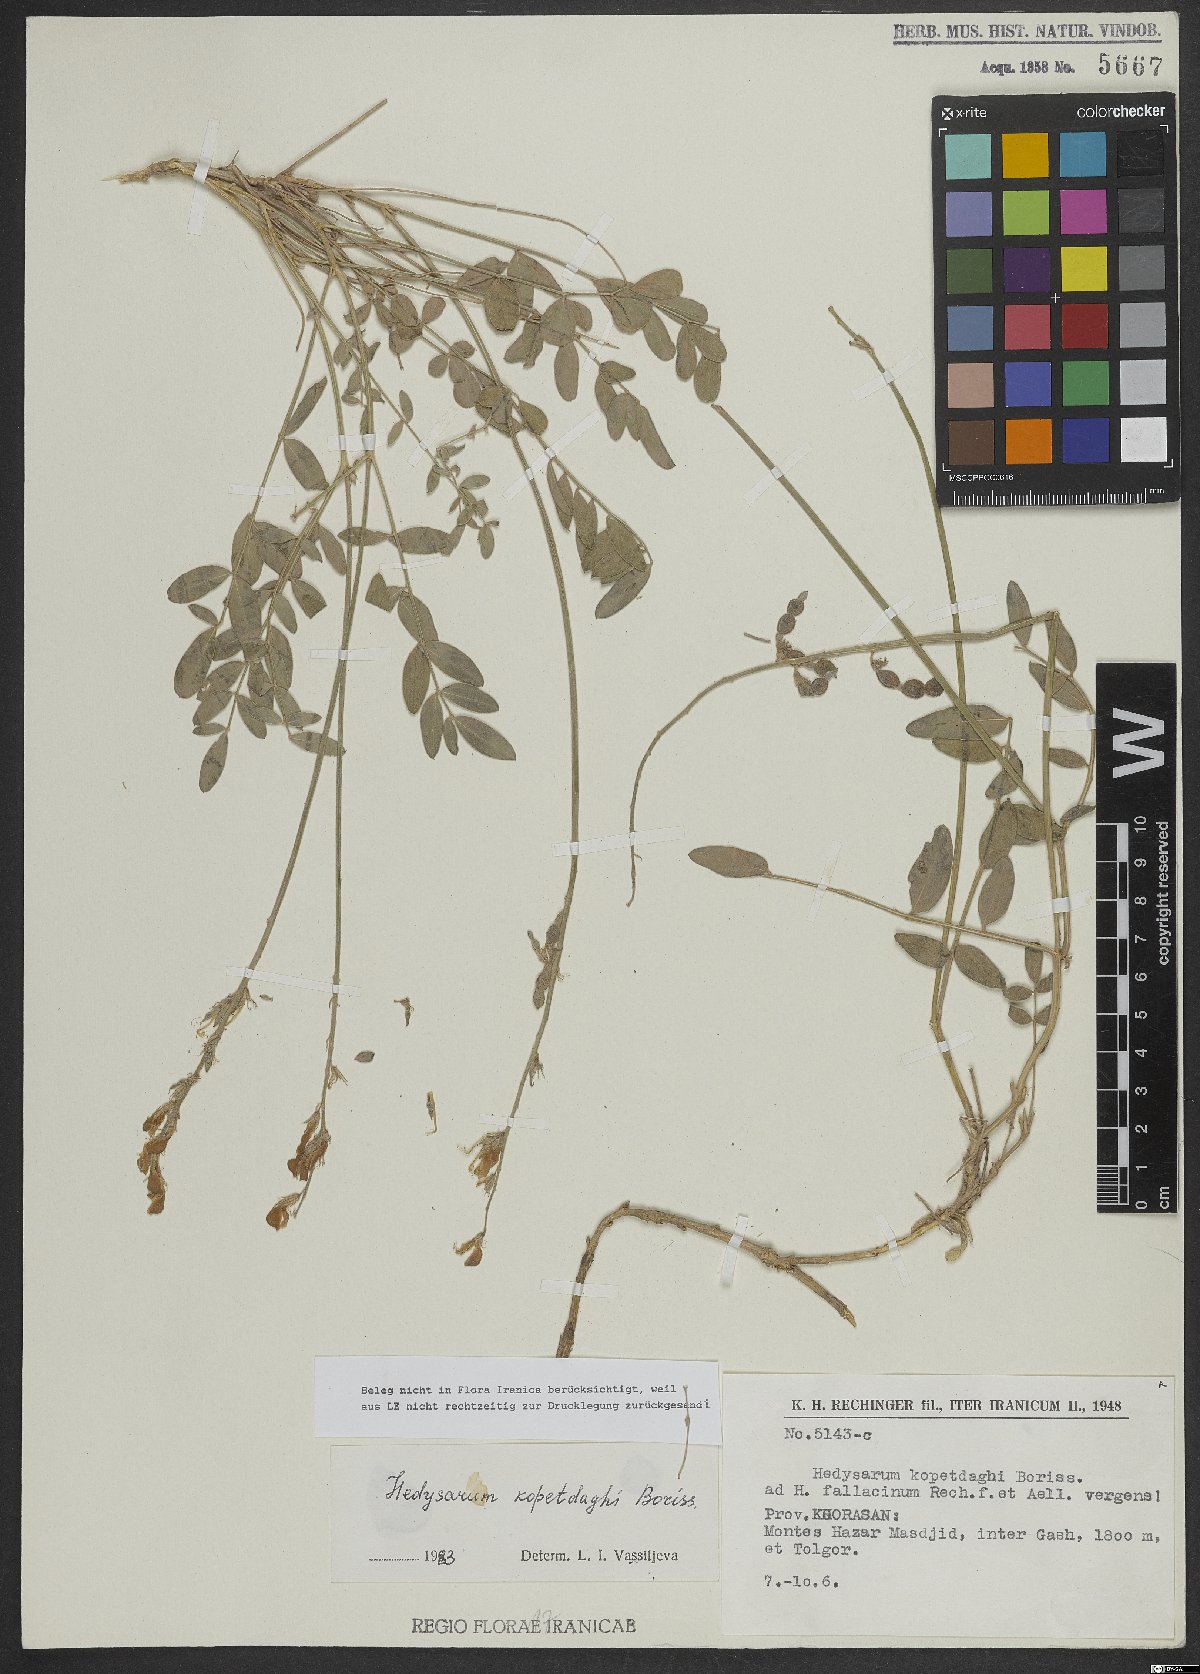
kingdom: Plantae
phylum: Tracheophyta
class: Magnoliopsida
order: Fabales
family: Fabaceae
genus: Hedysarum
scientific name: Hedysarum kopetdaghi
